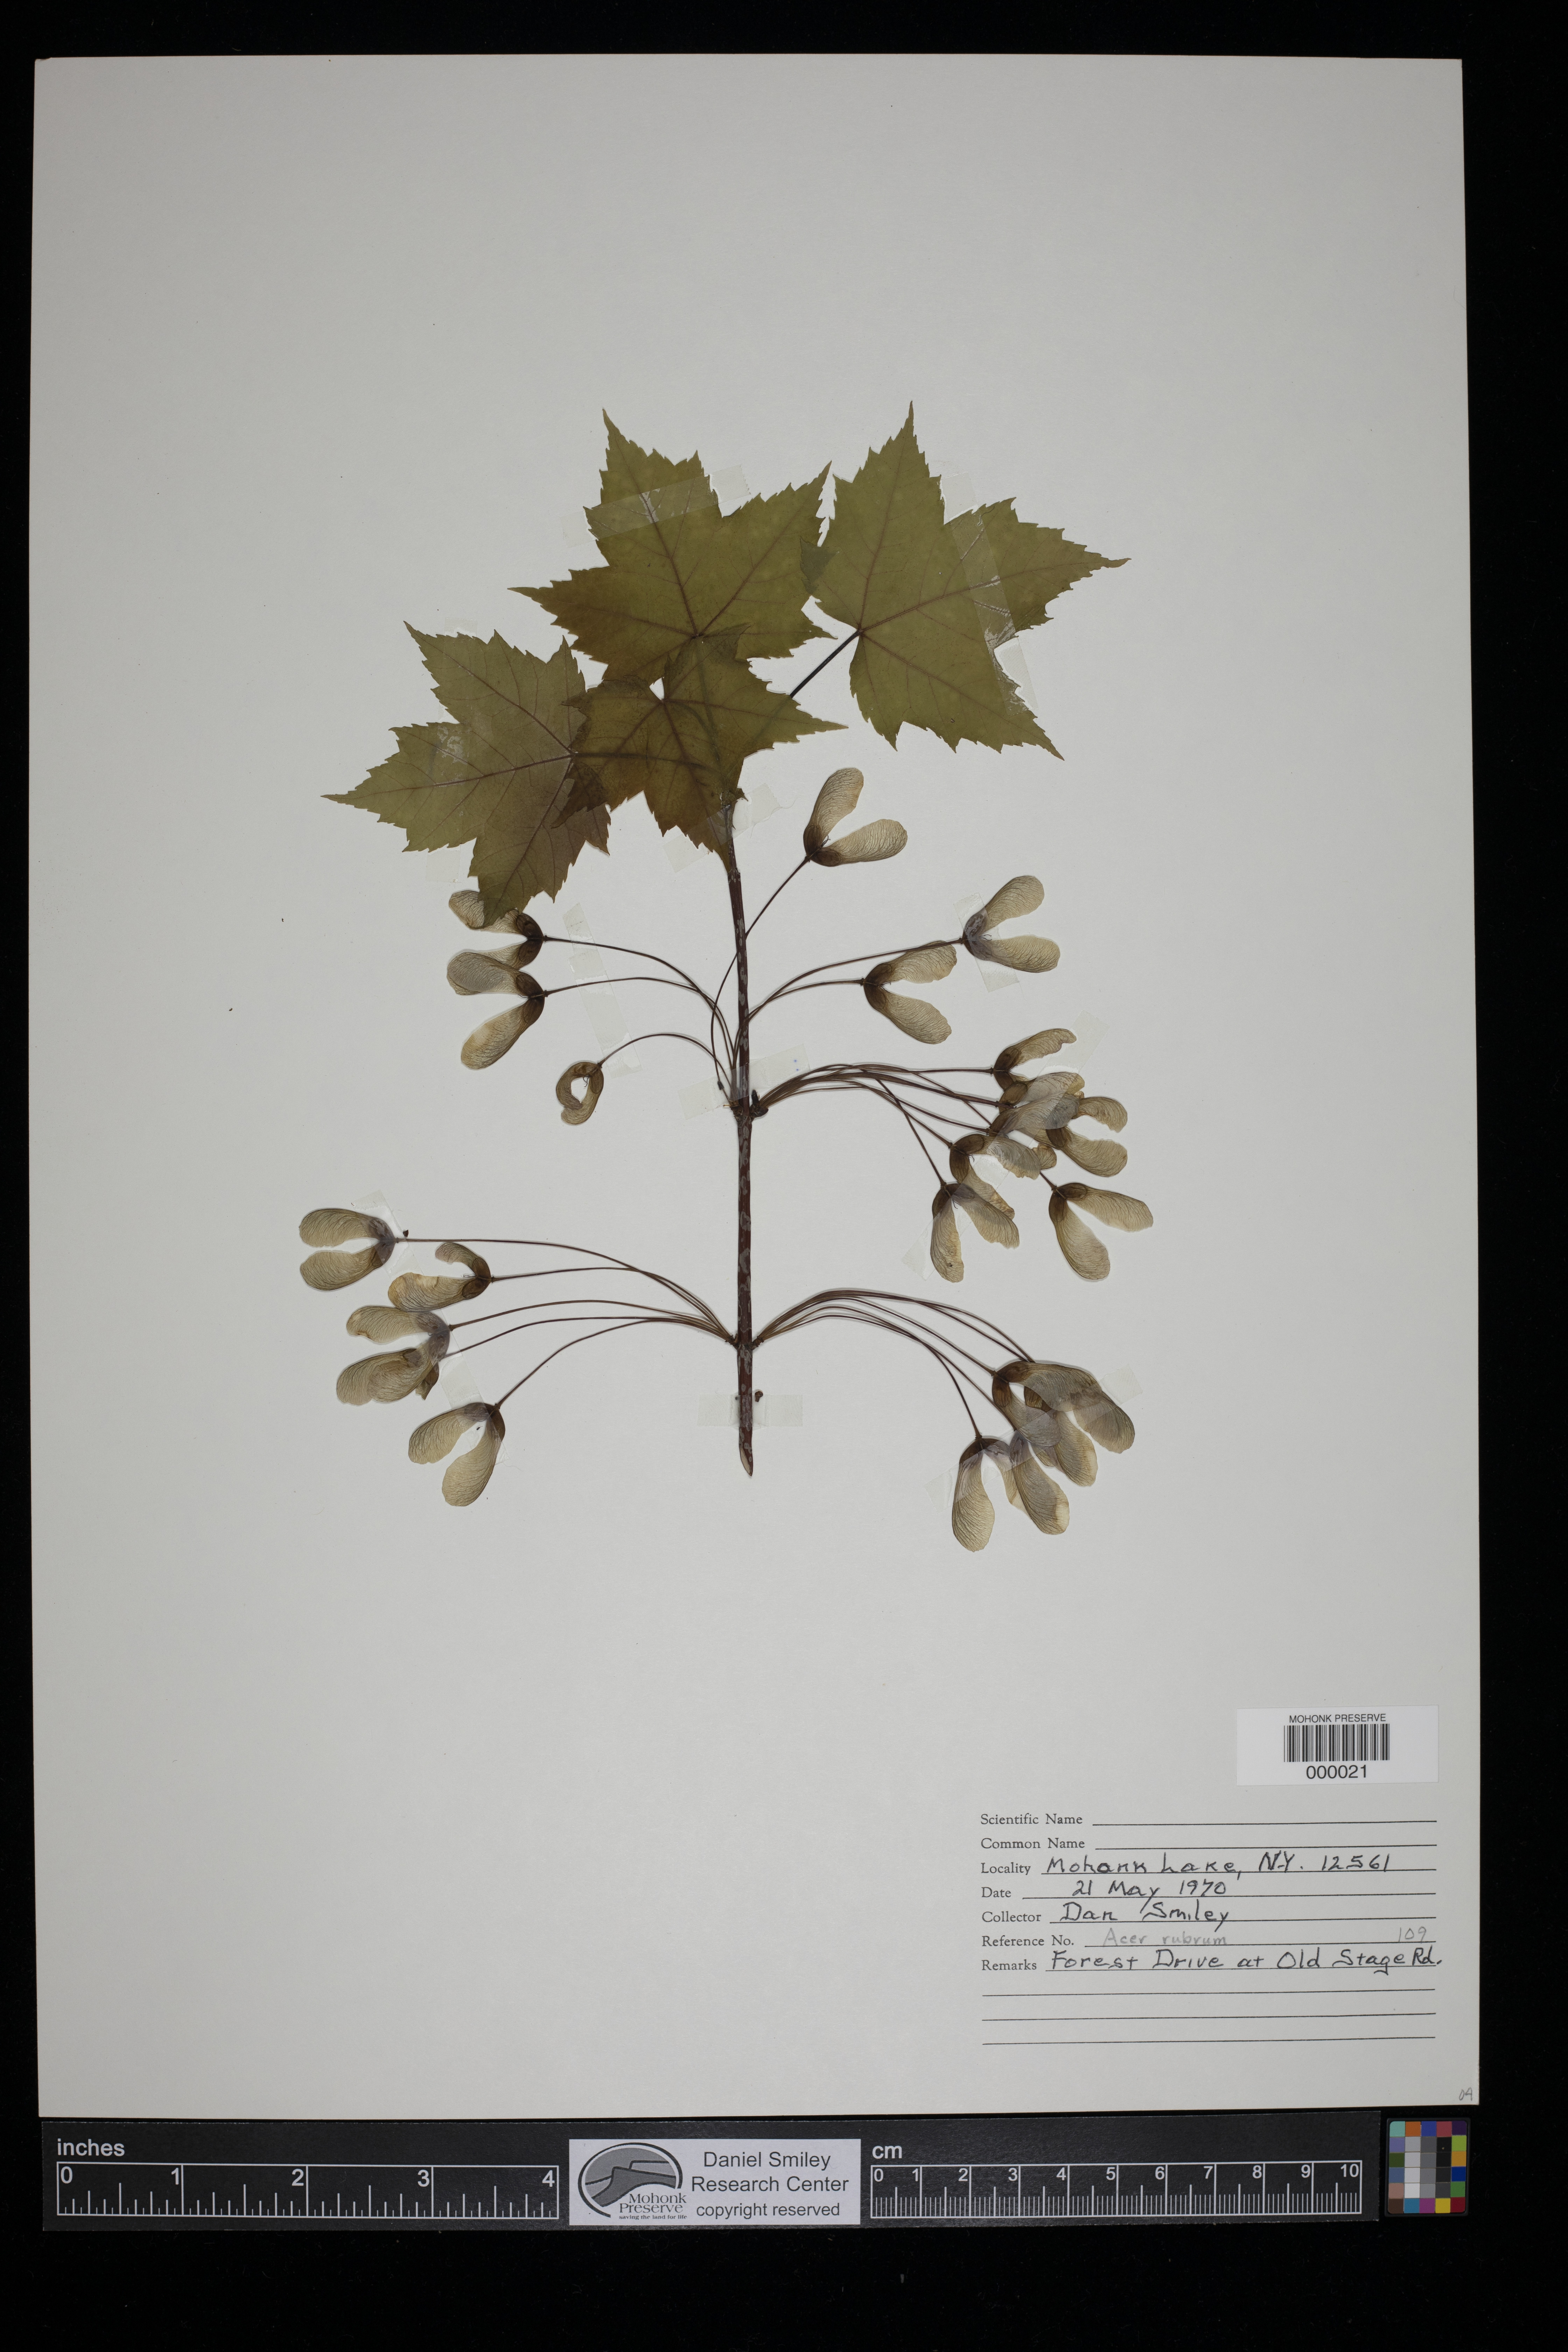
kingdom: Plantae
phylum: Tracheophyta
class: Magnoliopsida
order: Sapindales
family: Sapindaceae
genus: Acer
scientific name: Acer rubrum
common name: Red maple
